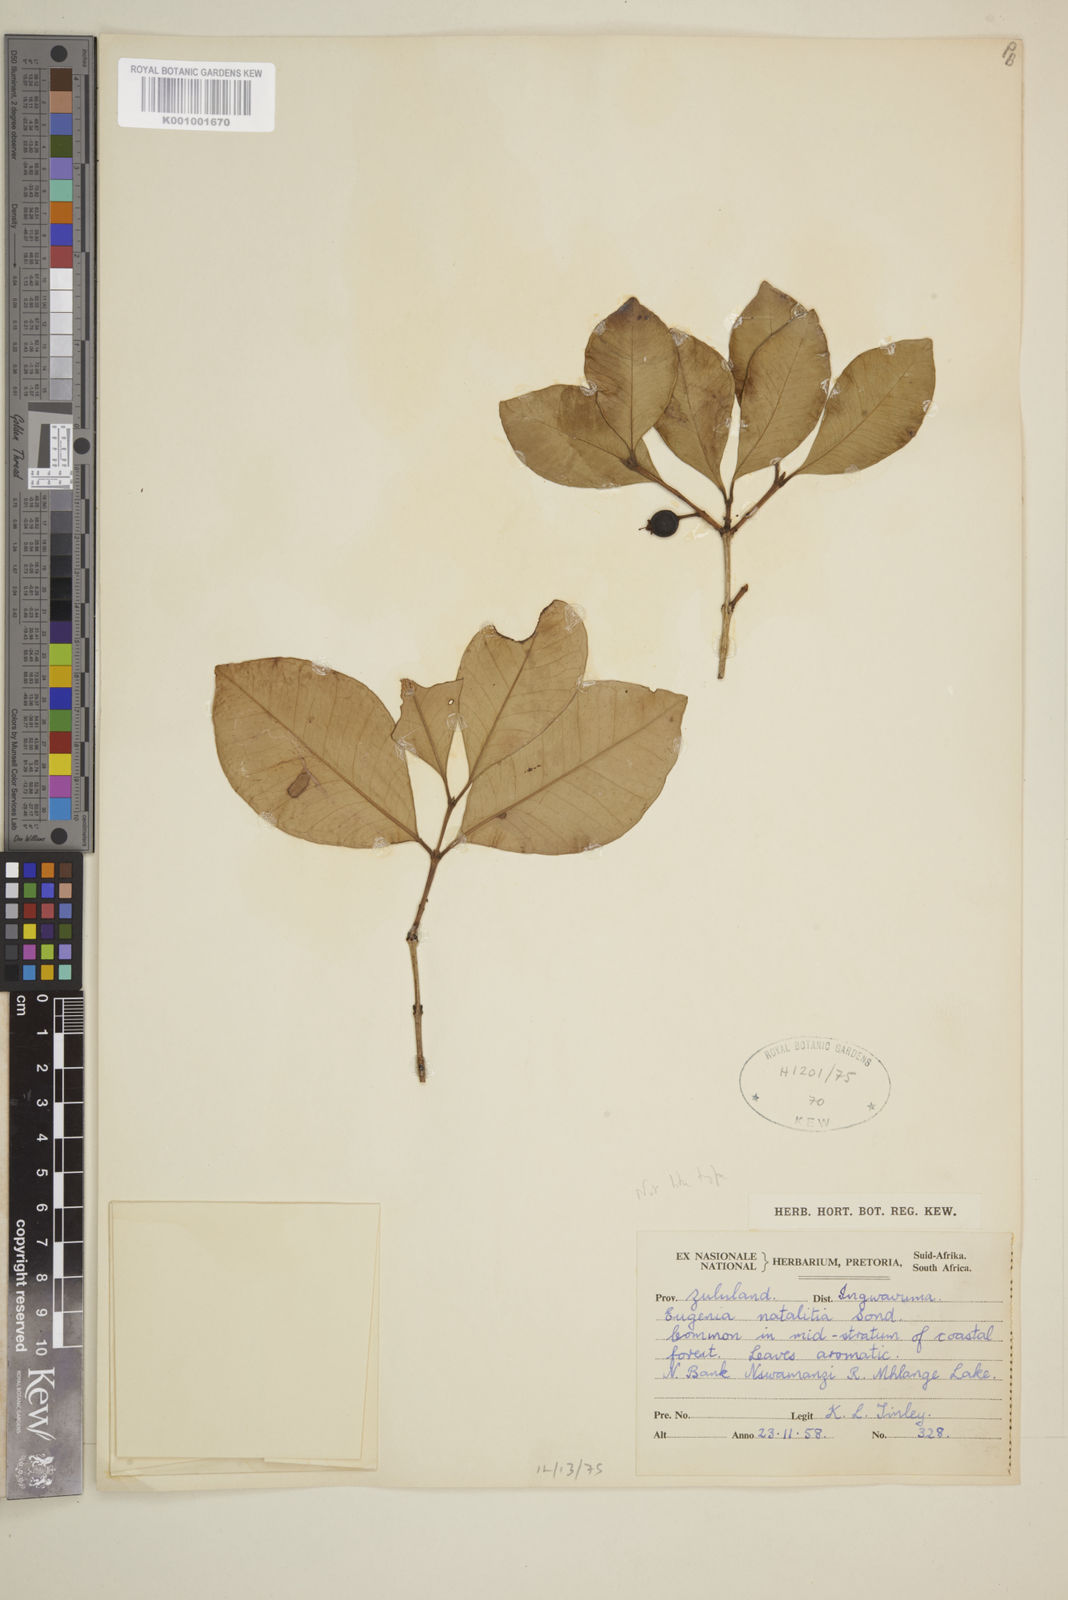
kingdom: Plantae
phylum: Tracheophyta
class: Magnoliopsida
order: Myrtales
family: Myrtaceae
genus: Eugenia
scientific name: Eugenia
